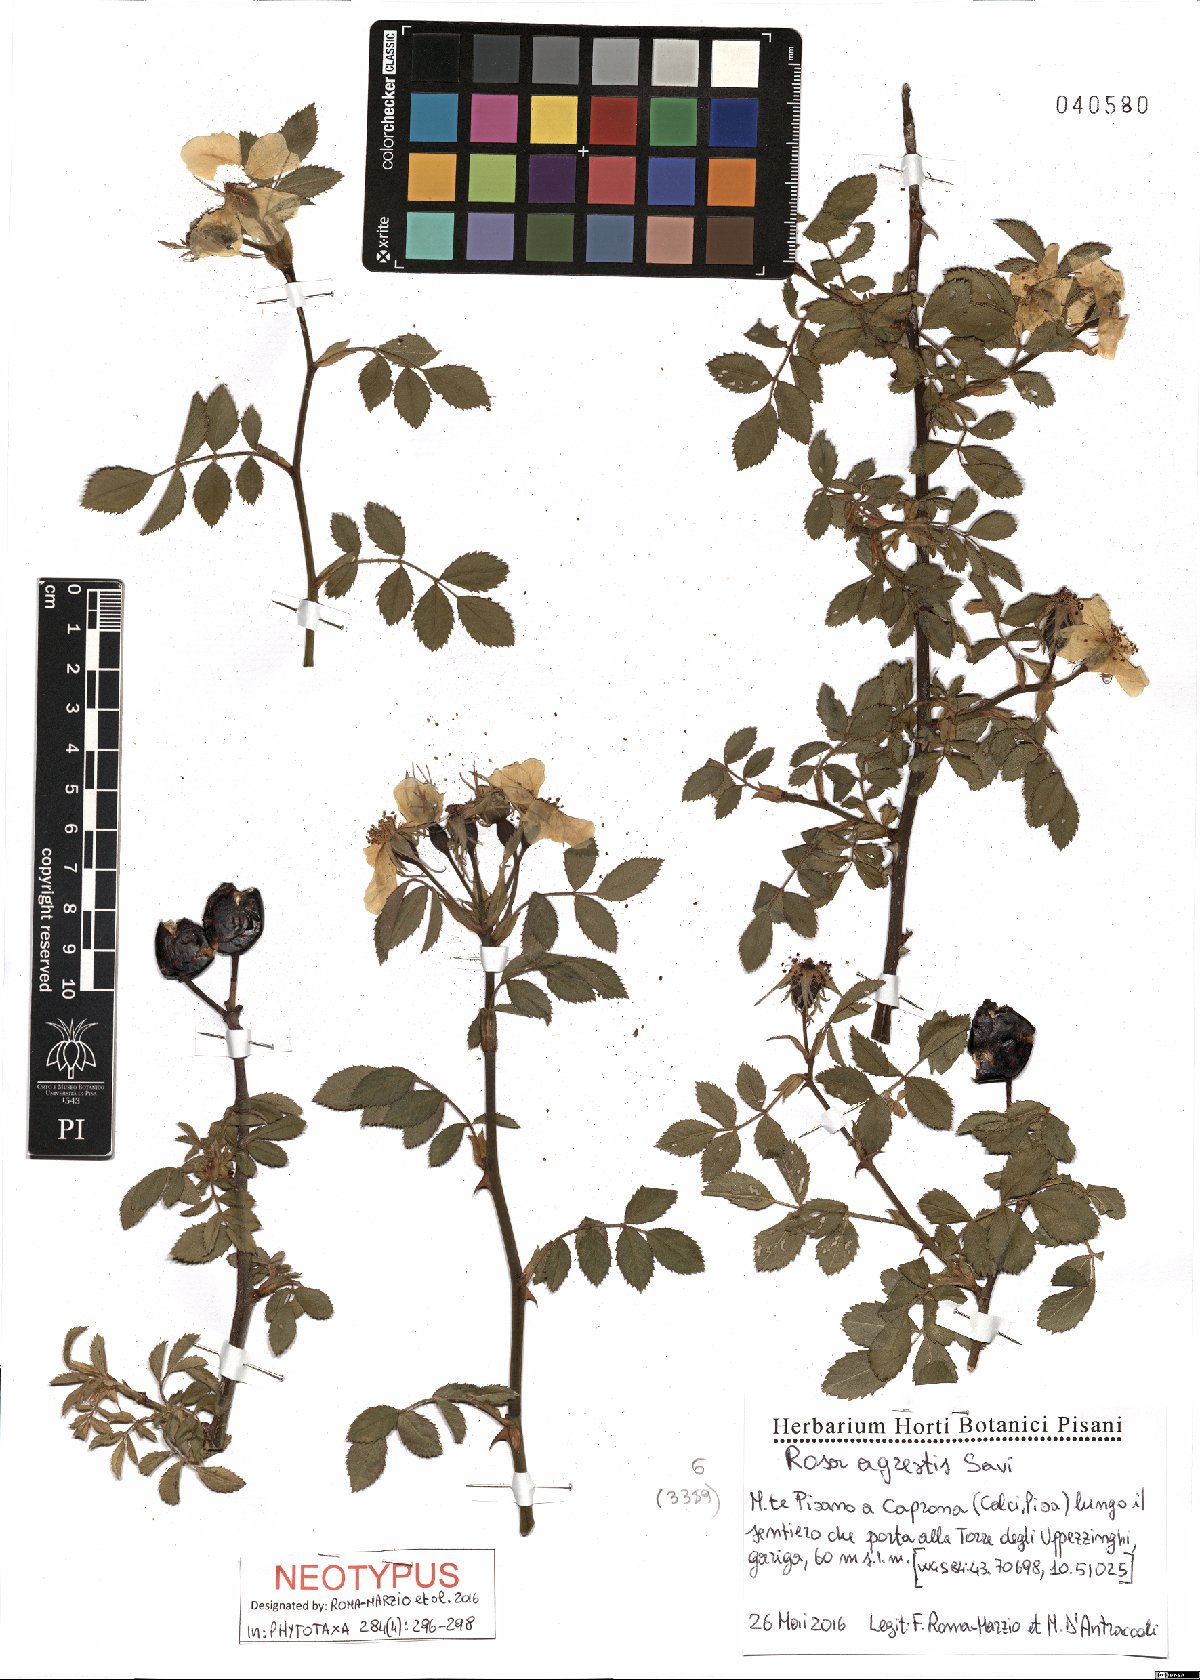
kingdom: Plantae
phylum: Tracheophyta
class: Magnoliopsida
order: Rosales
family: Rosaceae
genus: Rosa
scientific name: Rosa agrestis
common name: Fieldbriar
